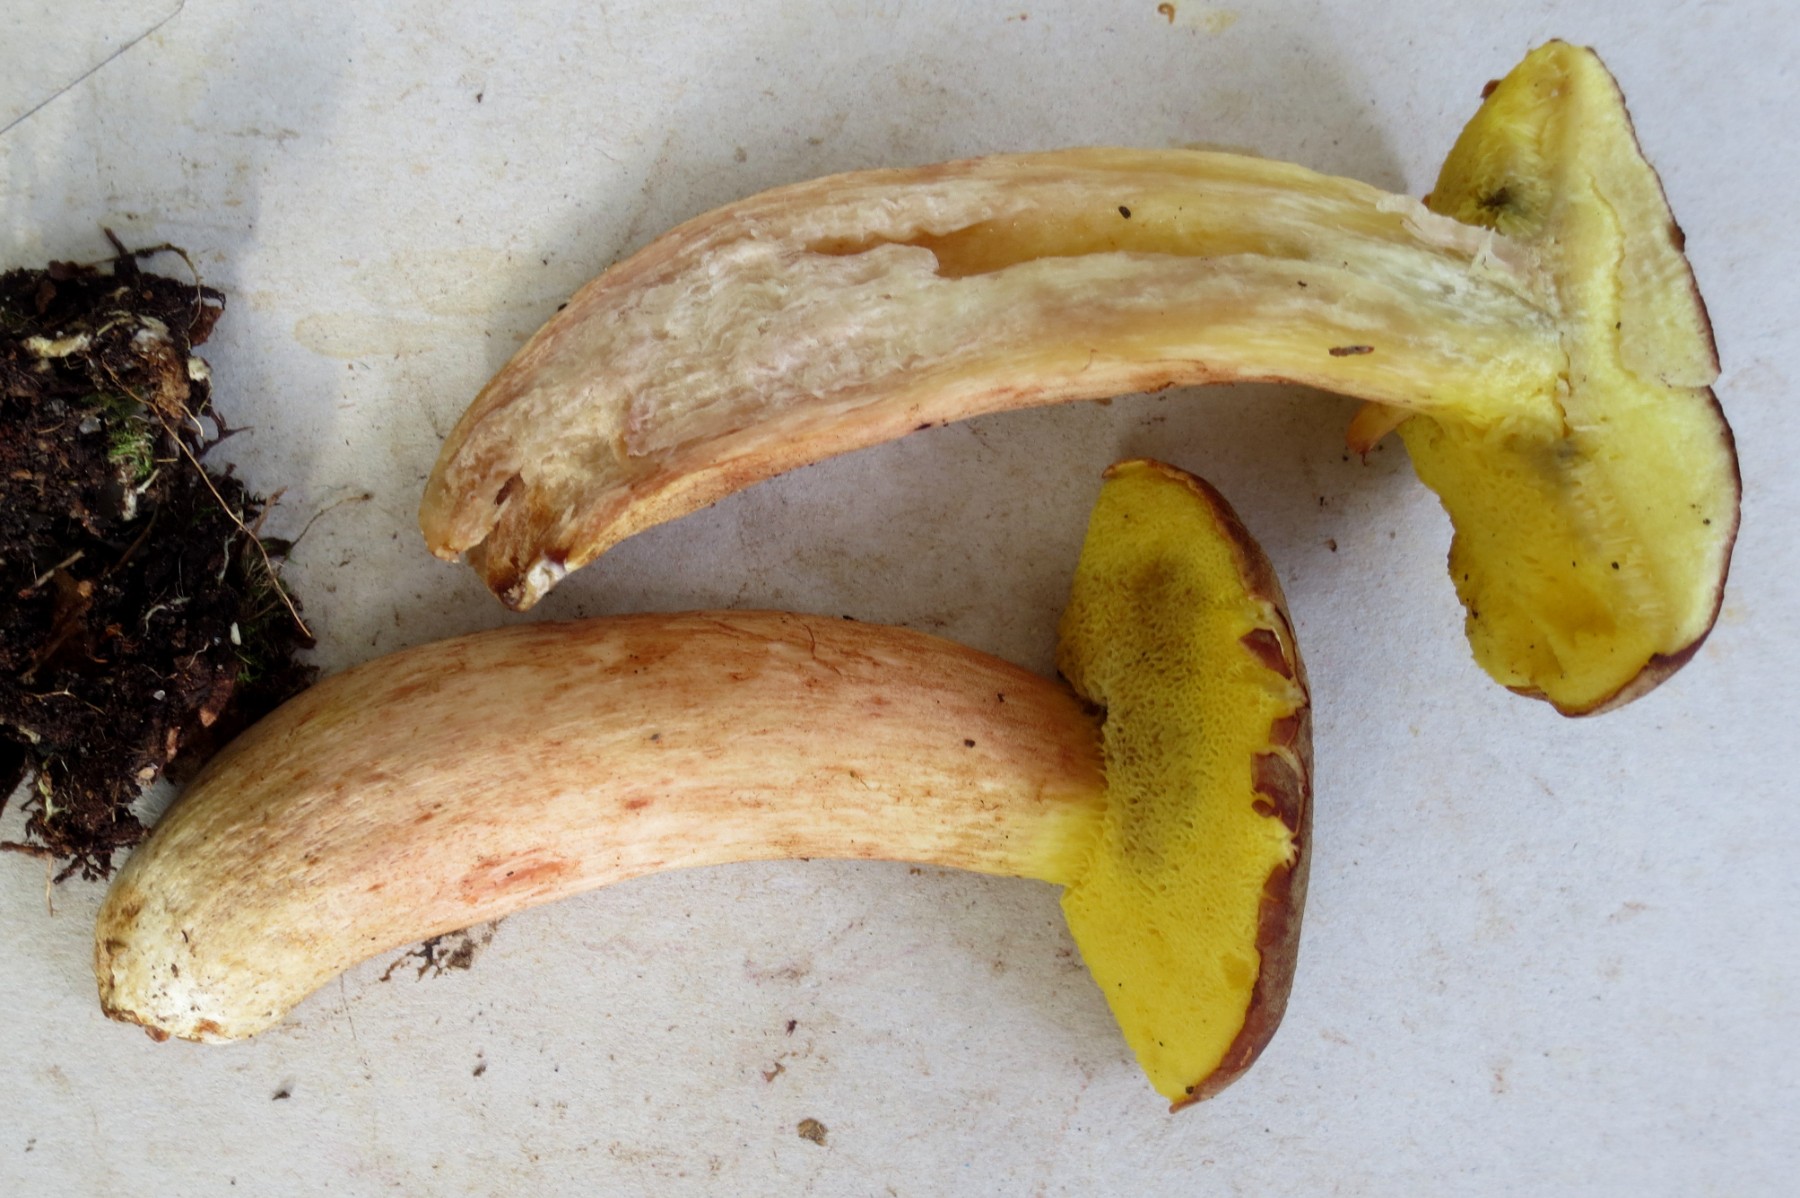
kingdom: Fungi
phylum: Basidiomycota
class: Agaricomycetes
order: Boletales
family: Boletaceae
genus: Xerocomus
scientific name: Xerocomus subtomentosus
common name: filtet rørhat
